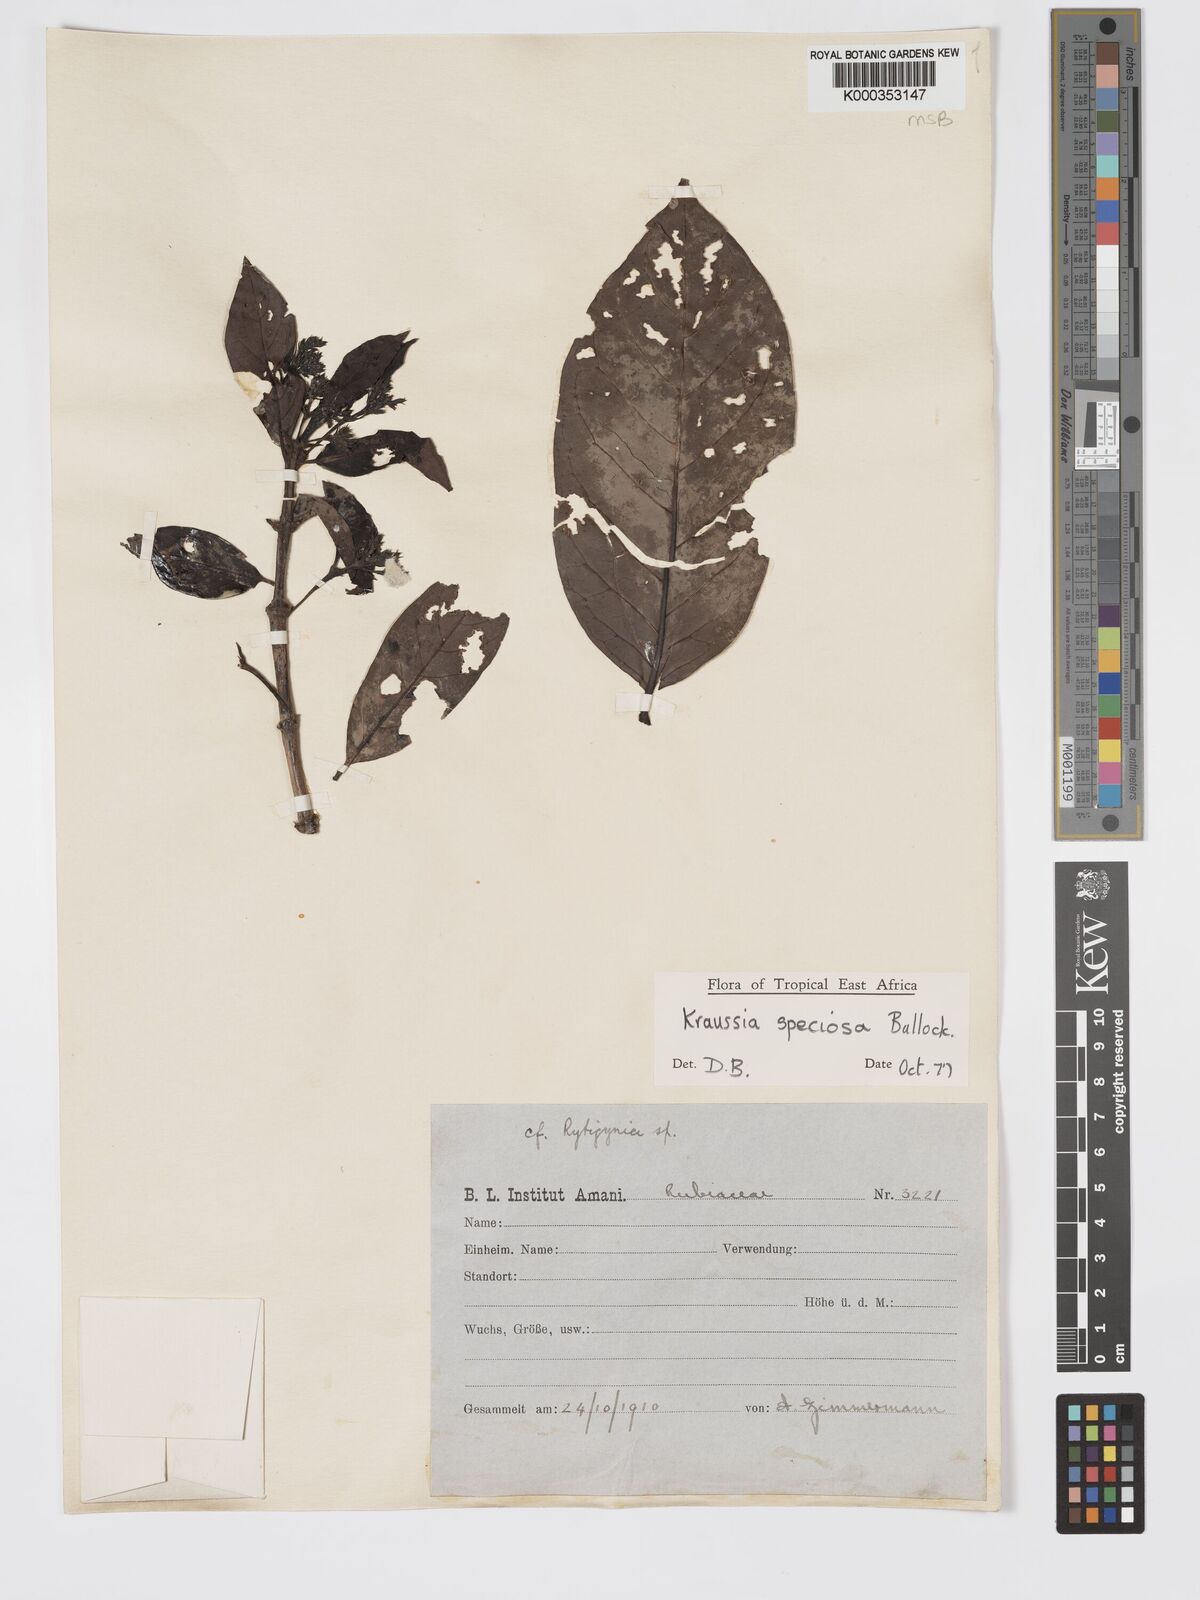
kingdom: Plantae
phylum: Tracheophyta
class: Magnoliopsida
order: Gentianales
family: Rubiaceae
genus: Kraussia
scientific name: Kraussia speciosa
